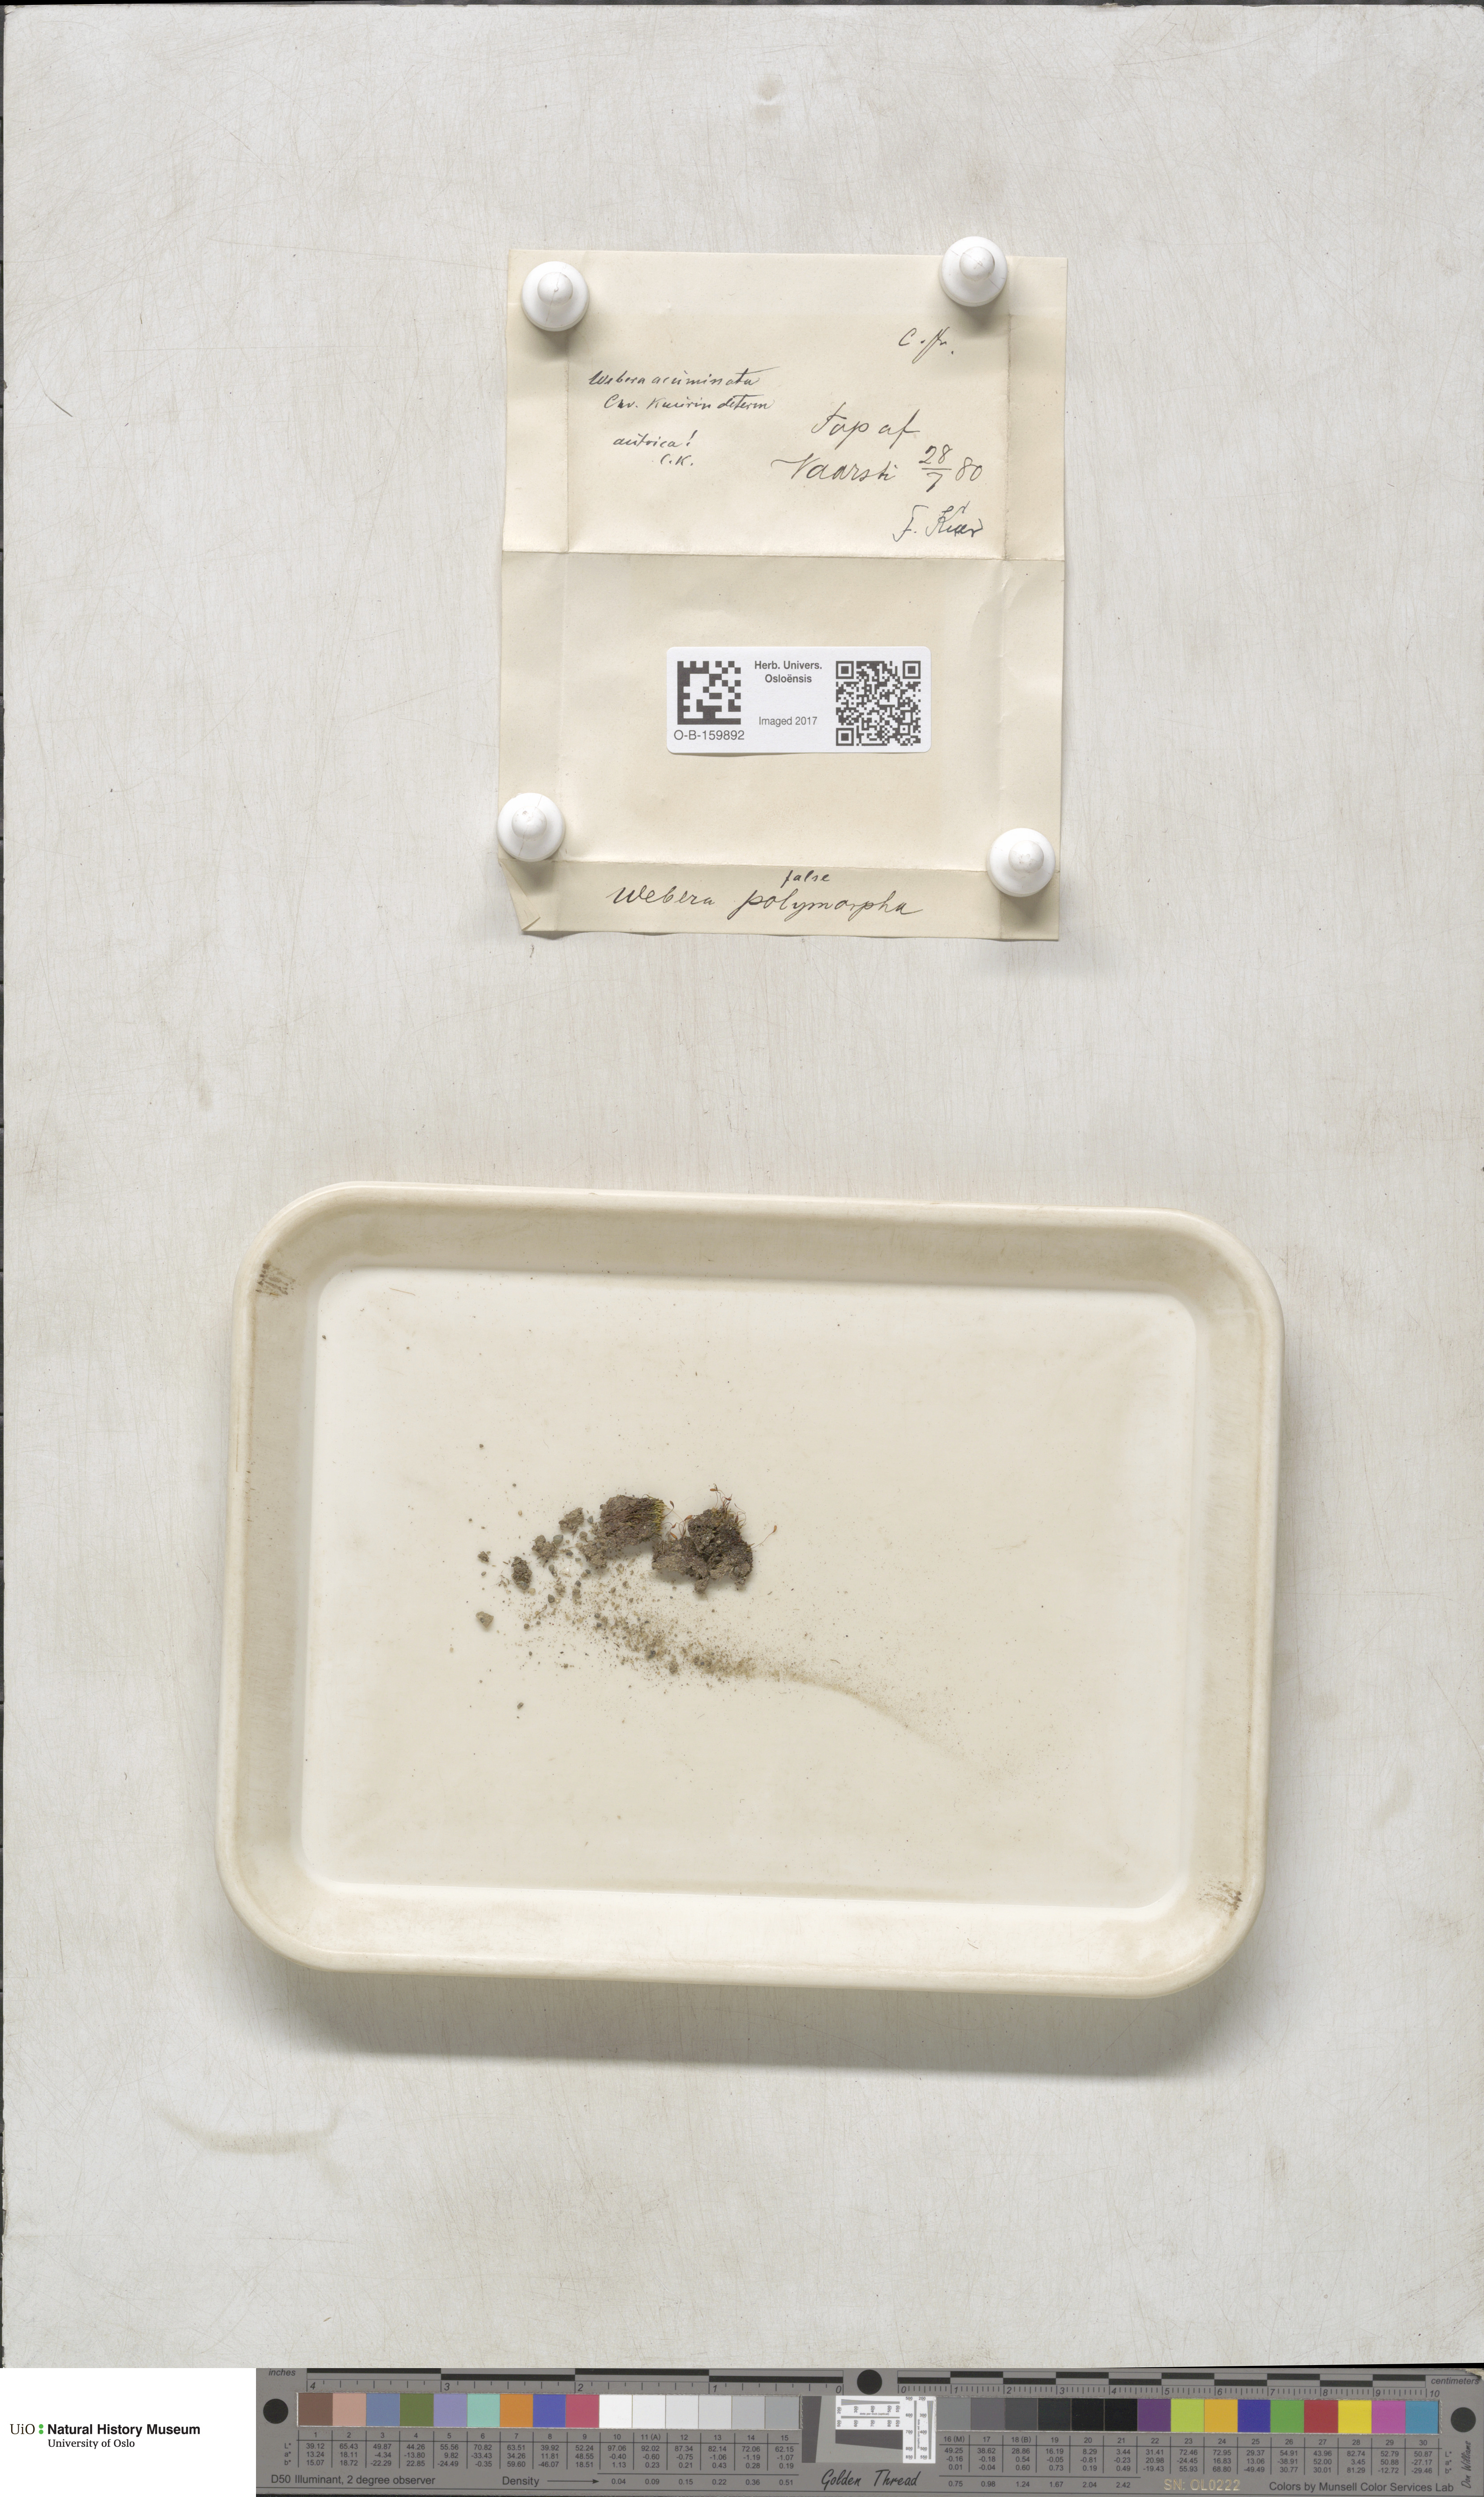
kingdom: Plantae
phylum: Bryophyta
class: Bryopsida
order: Bryales
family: Mniaceae
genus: Pohlia
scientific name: Pohlia elongata
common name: Long-fruited thread-moss
